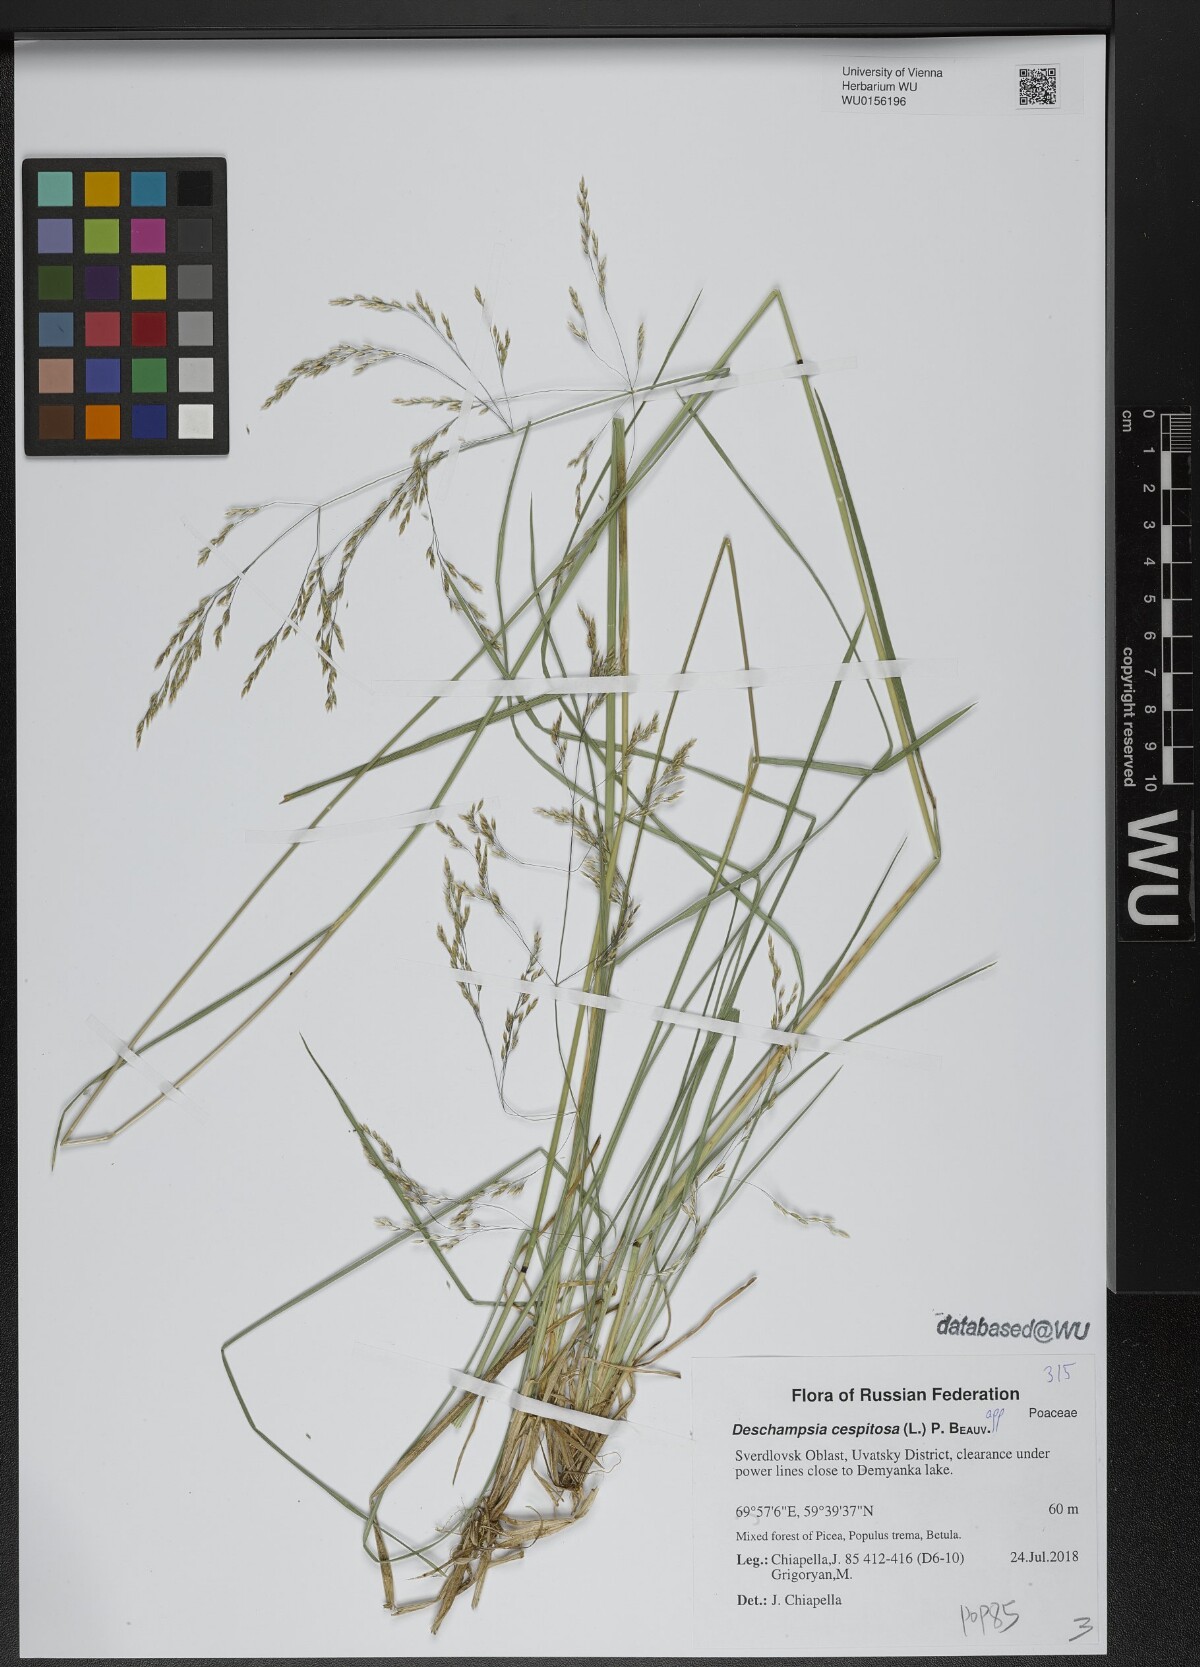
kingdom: Plantae
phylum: Tracheophyta
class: Liliopsida
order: Poales
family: Poaceae
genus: Deschampsia
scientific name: Deschampsia cespitosa
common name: Tufted hair-grass
